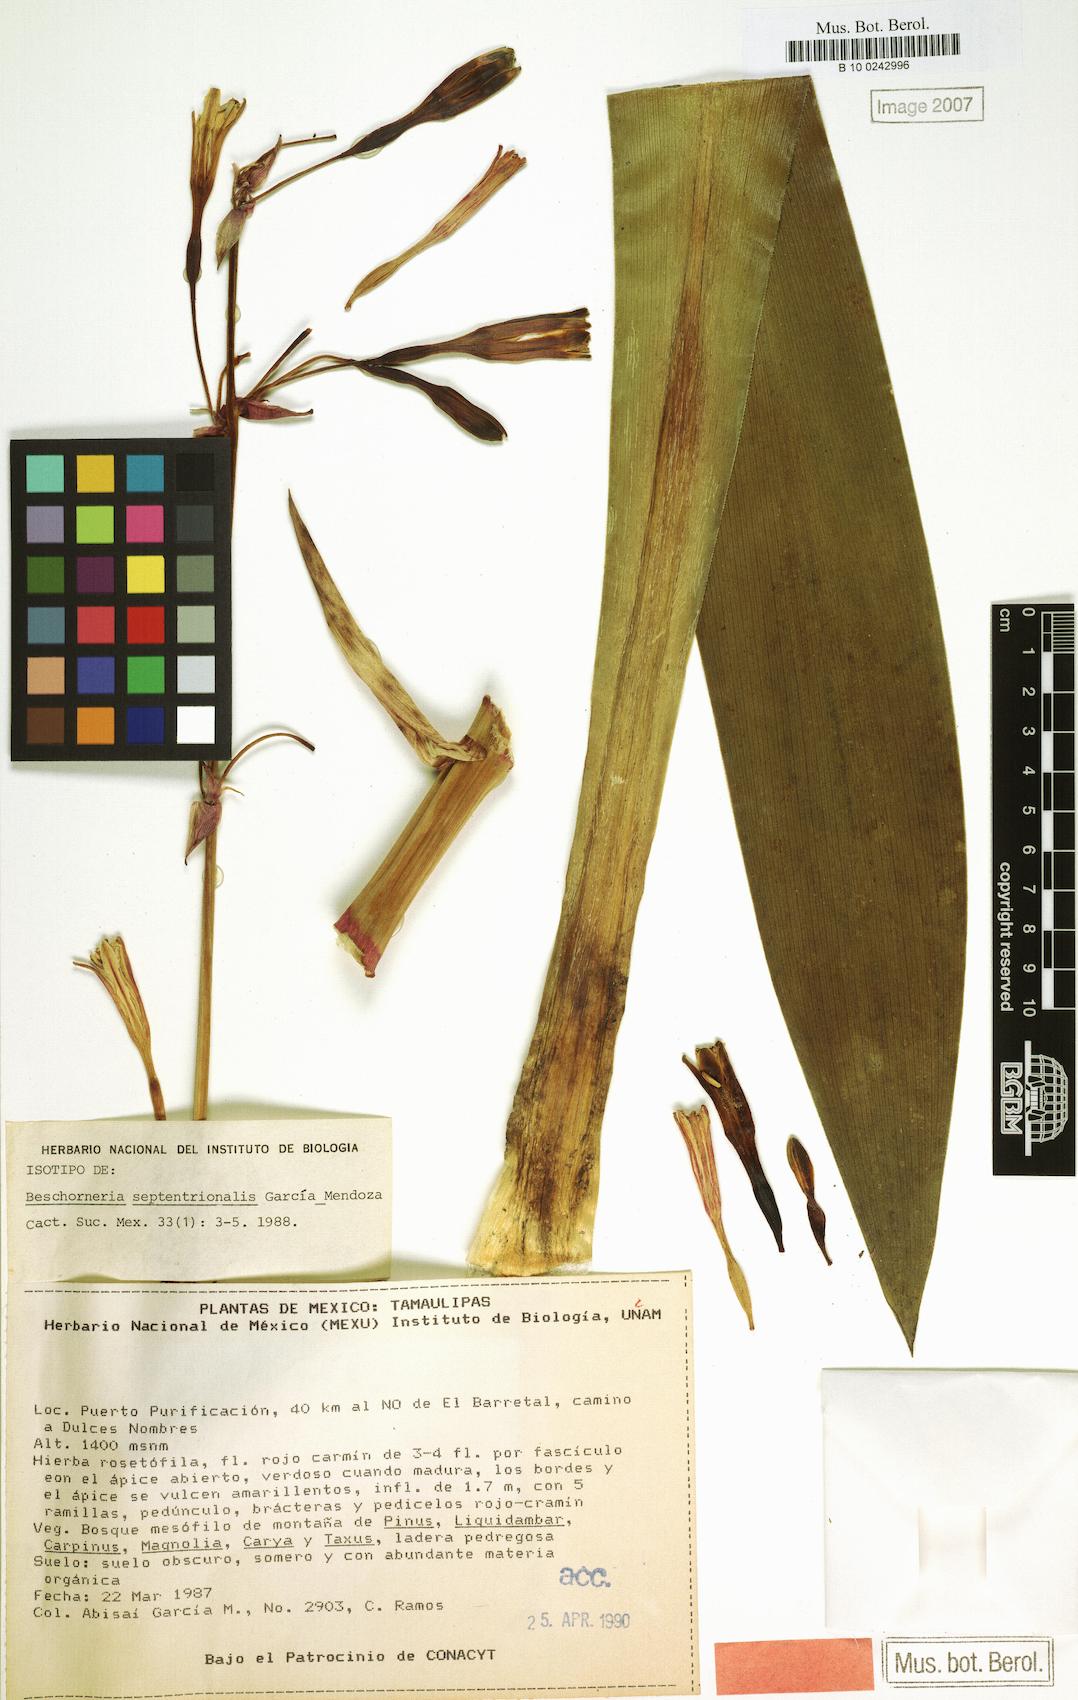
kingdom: Plantae
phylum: Tracheophyta
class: Liliopsida
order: Asparagales
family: Asparagaceae
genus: Beschorneria
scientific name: Beschorneria septentrionalis
